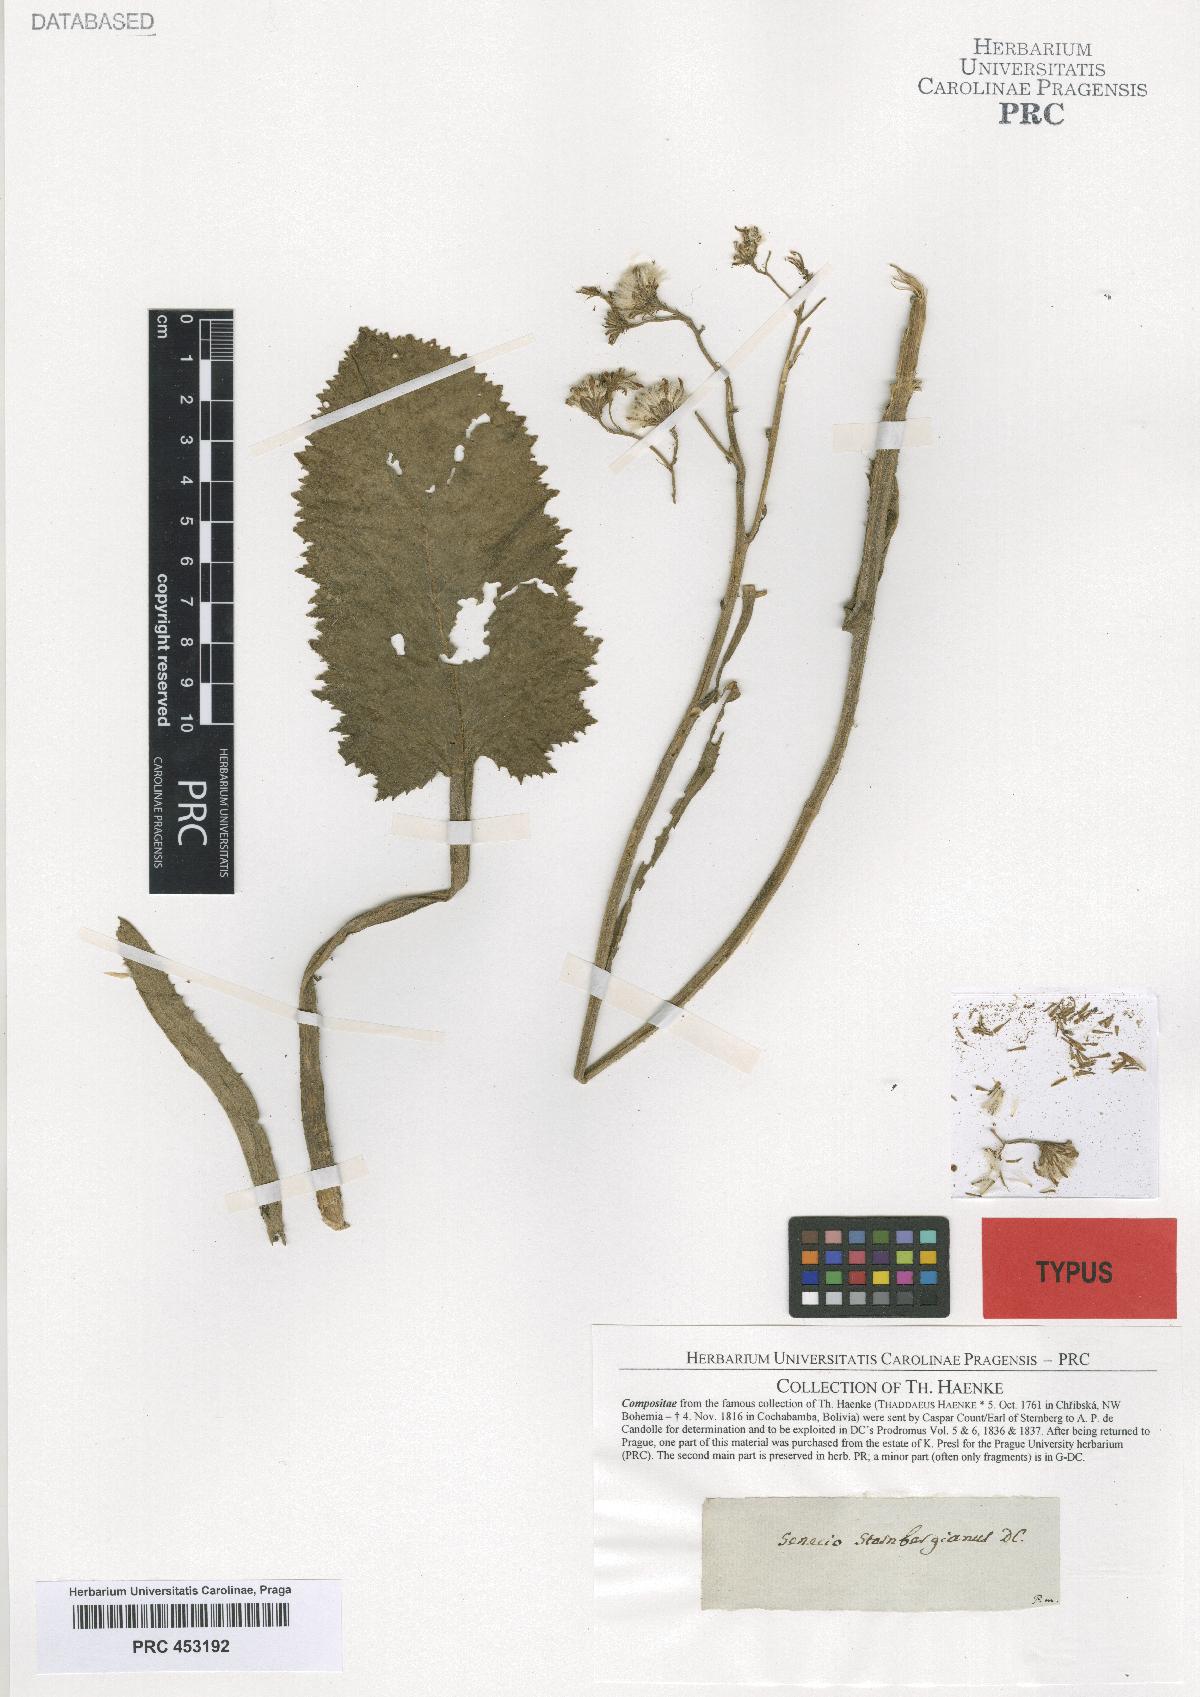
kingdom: Plantae
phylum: Tracheophyta
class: Magnoliopsida
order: Asterales
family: Asteraceae
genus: Nordenstamia
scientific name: Nordenstamia stellatopilosa
